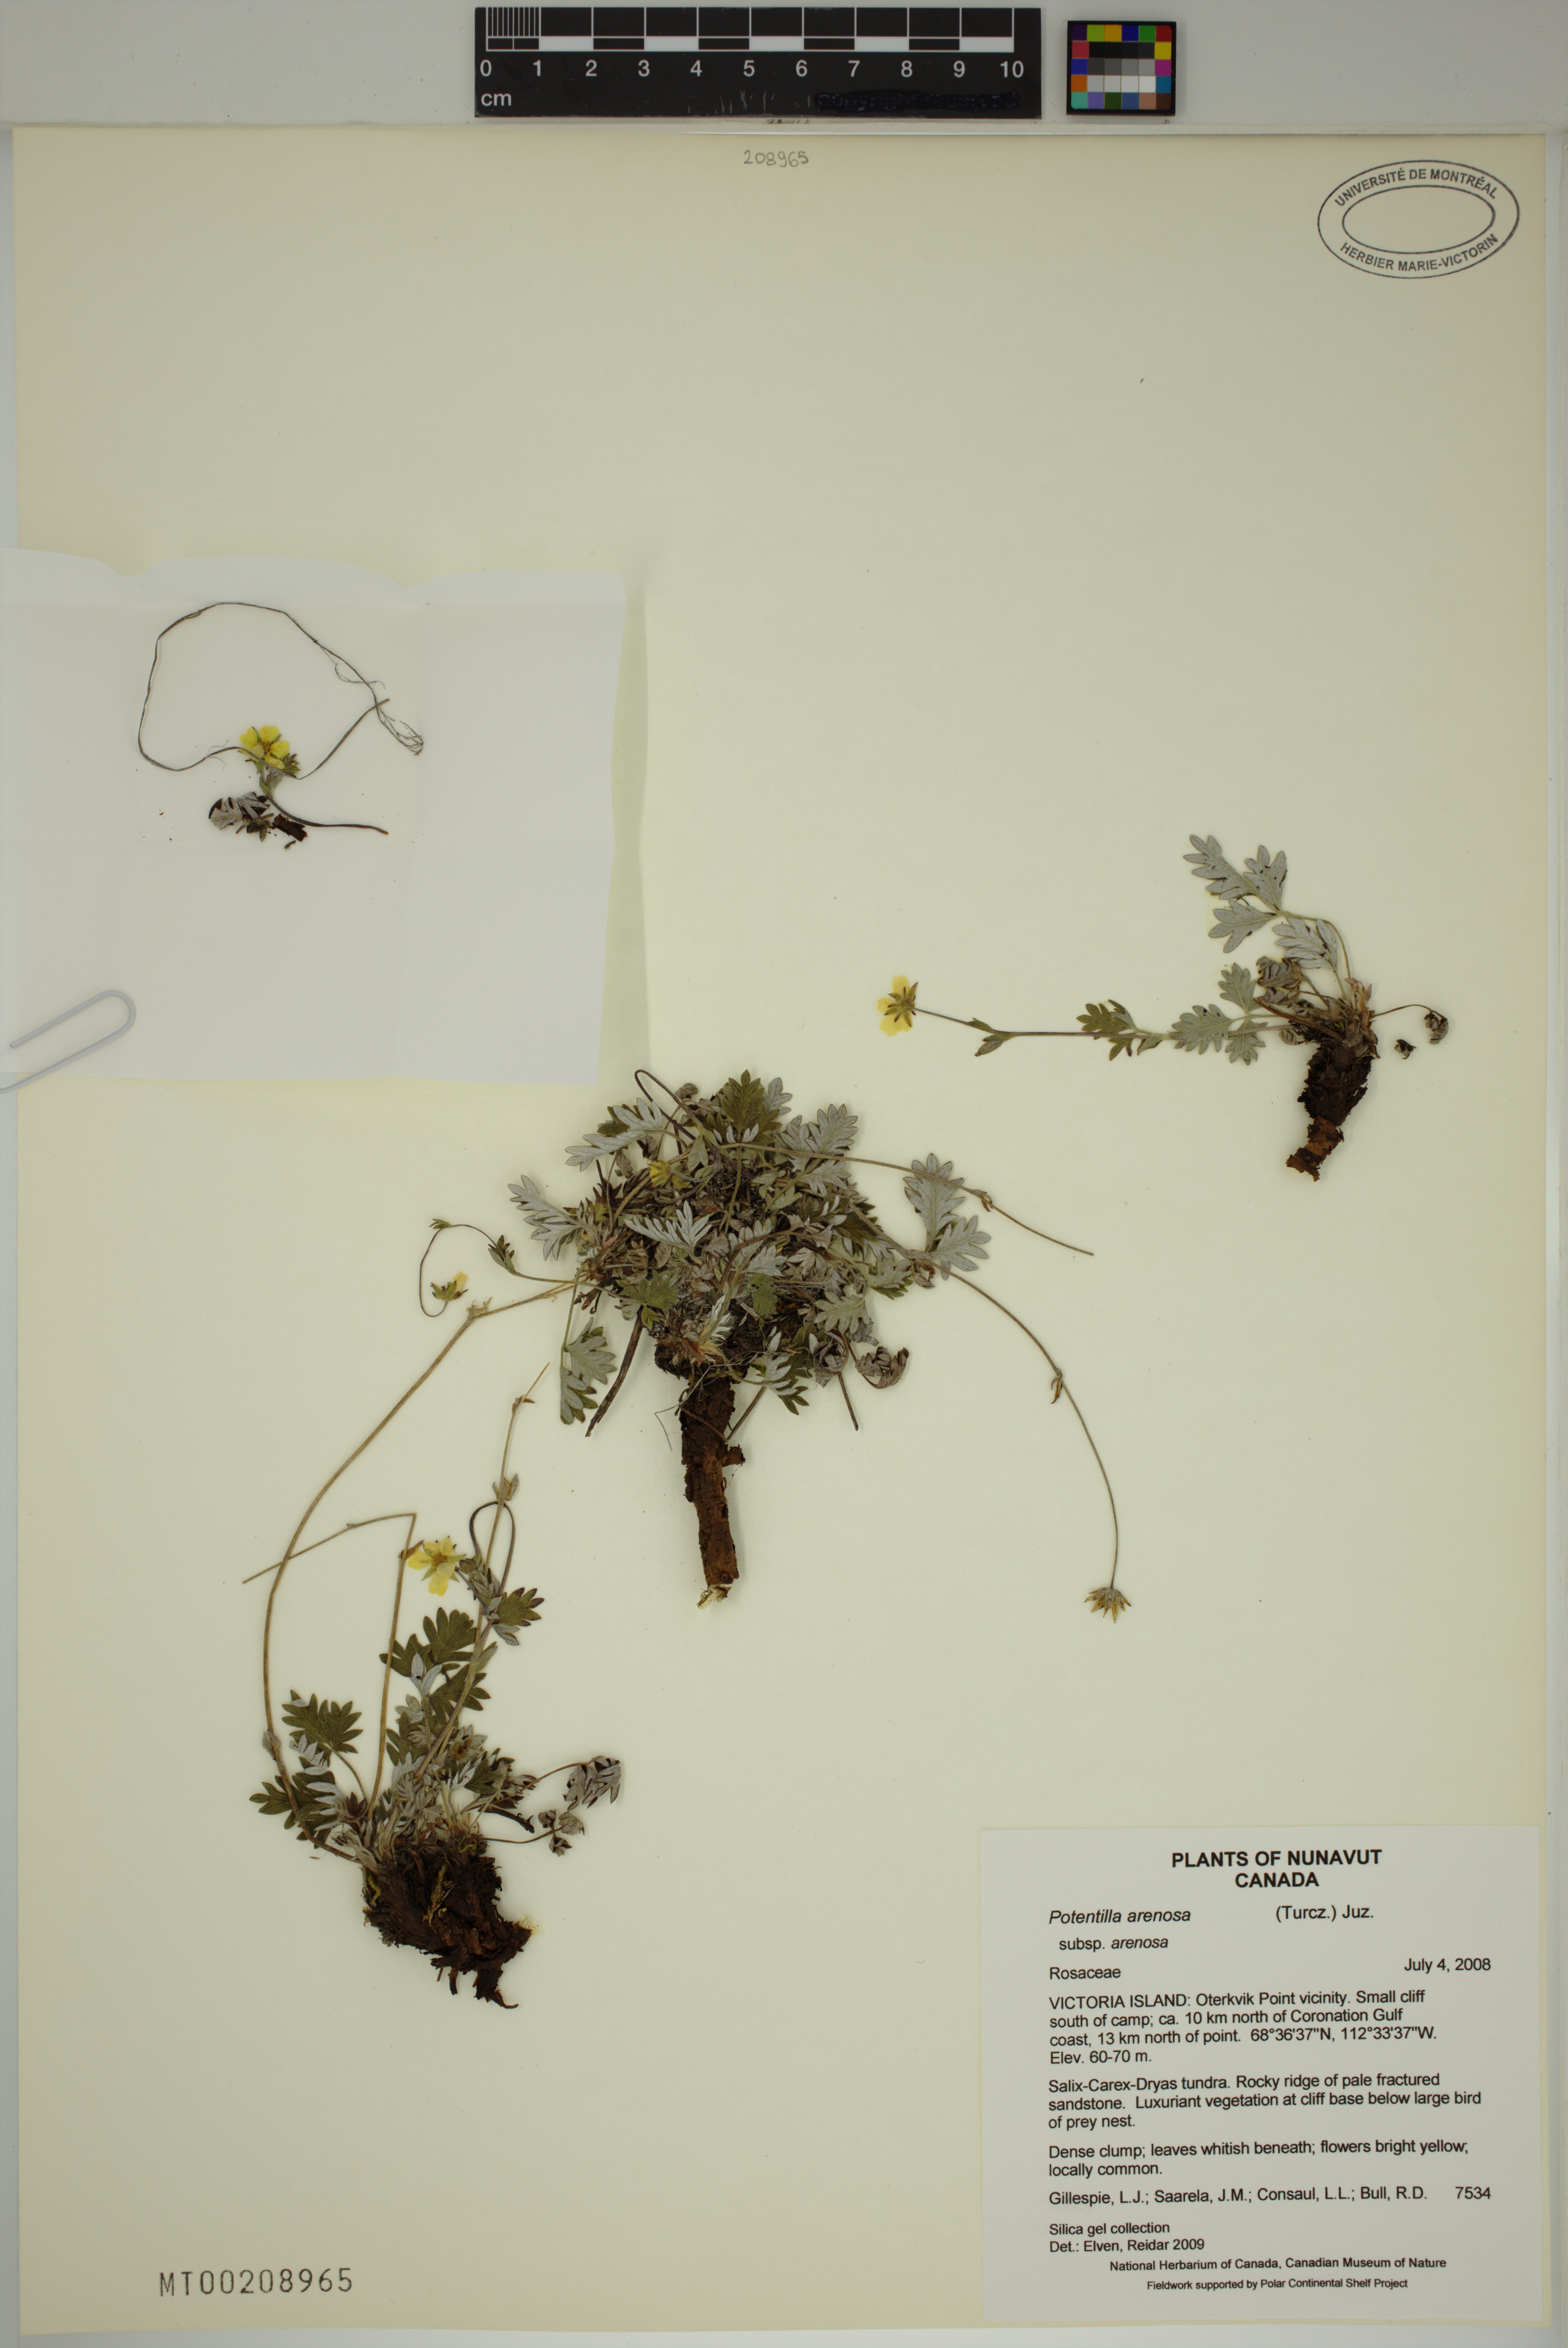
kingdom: Plantae
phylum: Tracheophyta
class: Magnoliopsida
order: Rosales
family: Rosaceae
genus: Potentilla
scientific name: Potentilla arenosa
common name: Bluff cinquefoil
